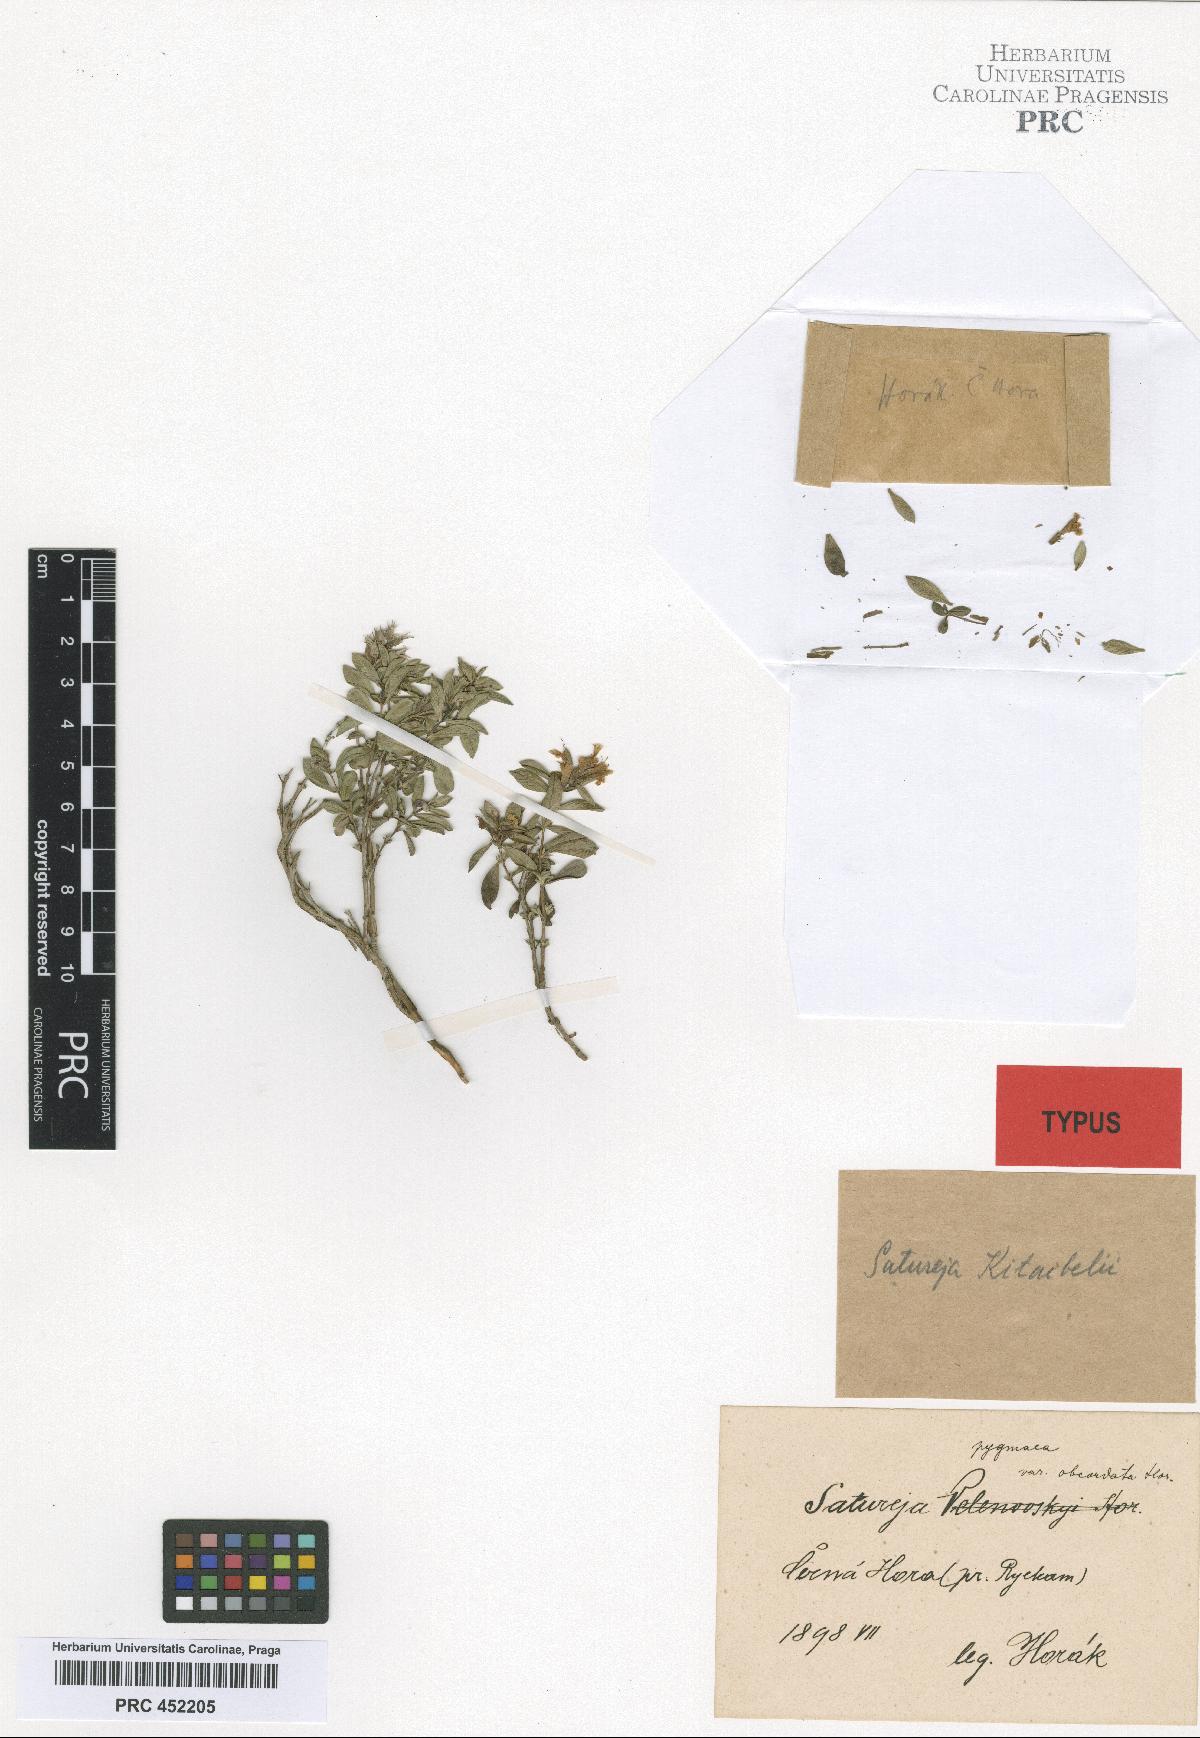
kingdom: Plantae
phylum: Tracheophyta
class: Magnoliopsida
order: Lamiales
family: Lamiaceae
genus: Satureja
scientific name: Satureja subspicata
